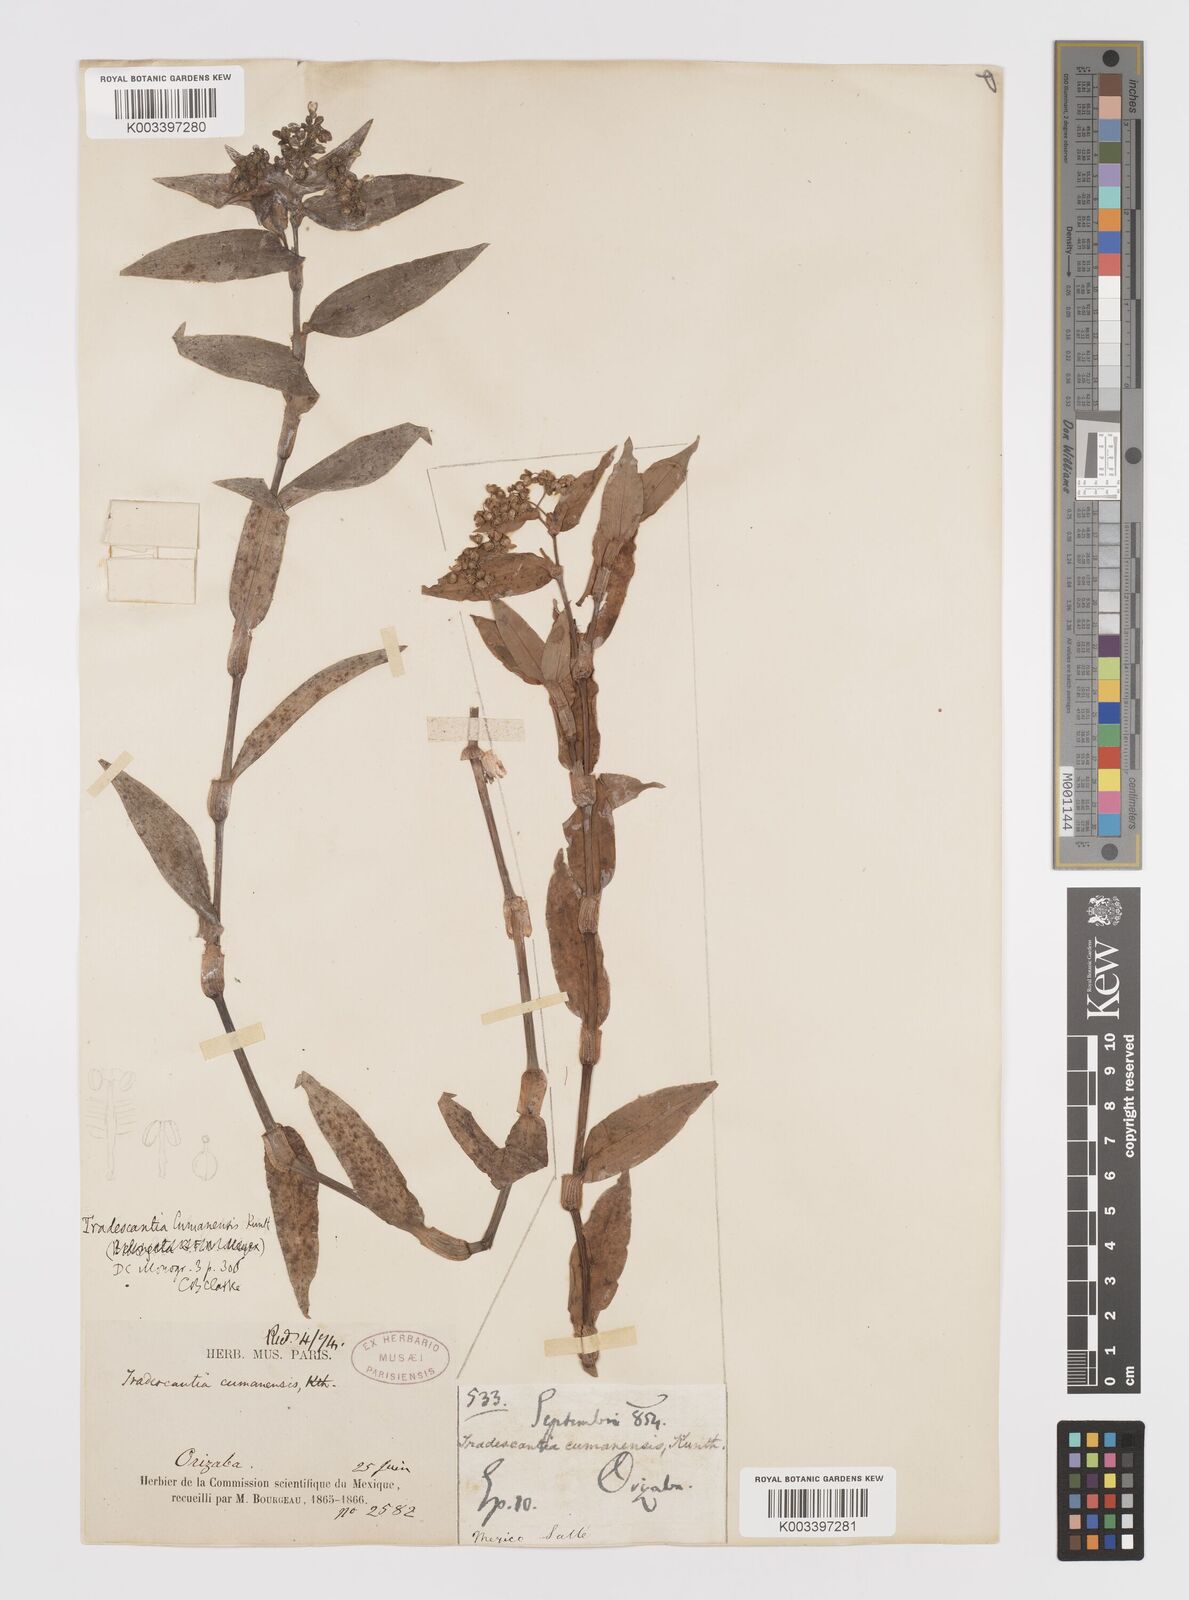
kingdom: Plantae
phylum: Tracheophyta
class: Liliopsida
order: Commelinales
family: Commelinaceae
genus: Callisia
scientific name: Callisia serrulata
